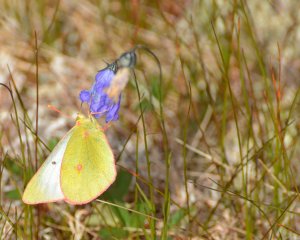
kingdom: Animalia
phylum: Arthropoda
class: Insecta
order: Lepidoptera
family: Pieridae
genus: Colias
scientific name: Colias pelidne
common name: Pelidne Sulphur
